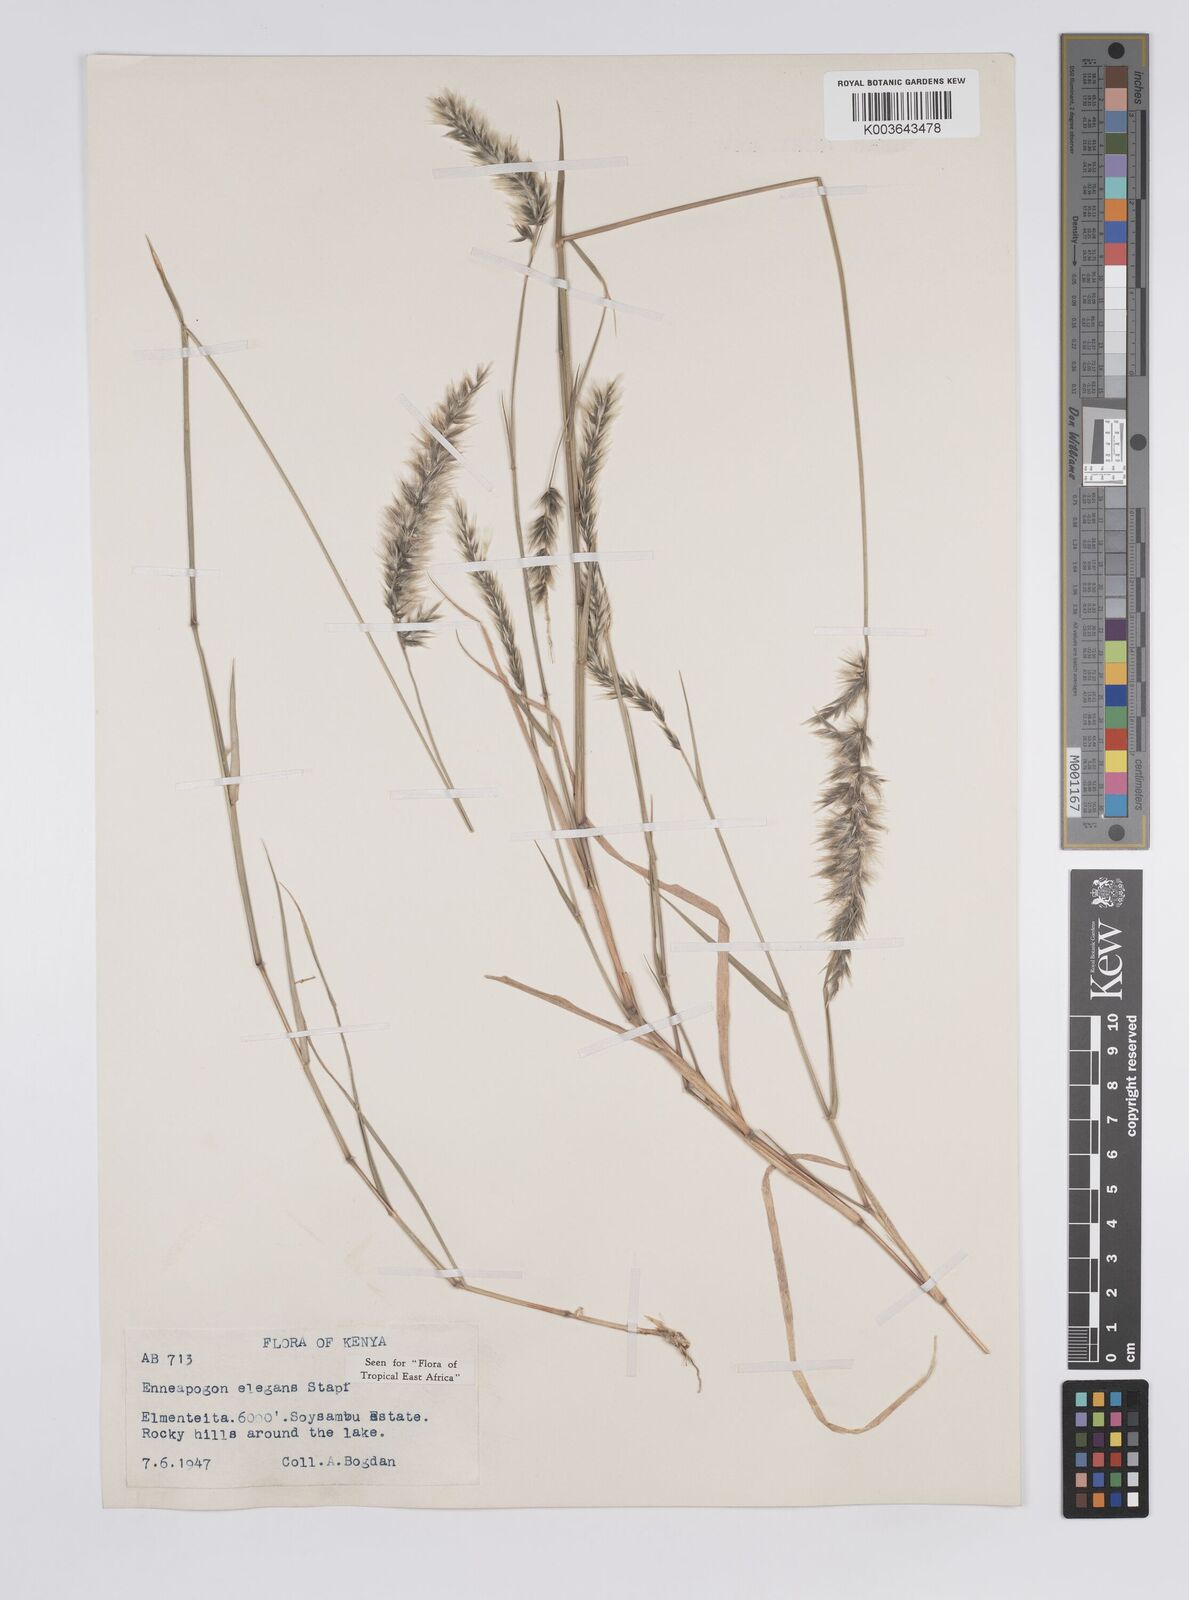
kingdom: Plantae
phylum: Tracheophyta
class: Liliopsida
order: Poales
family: Poaceae
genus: Enneapogon
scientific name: Enneapogon persicus
